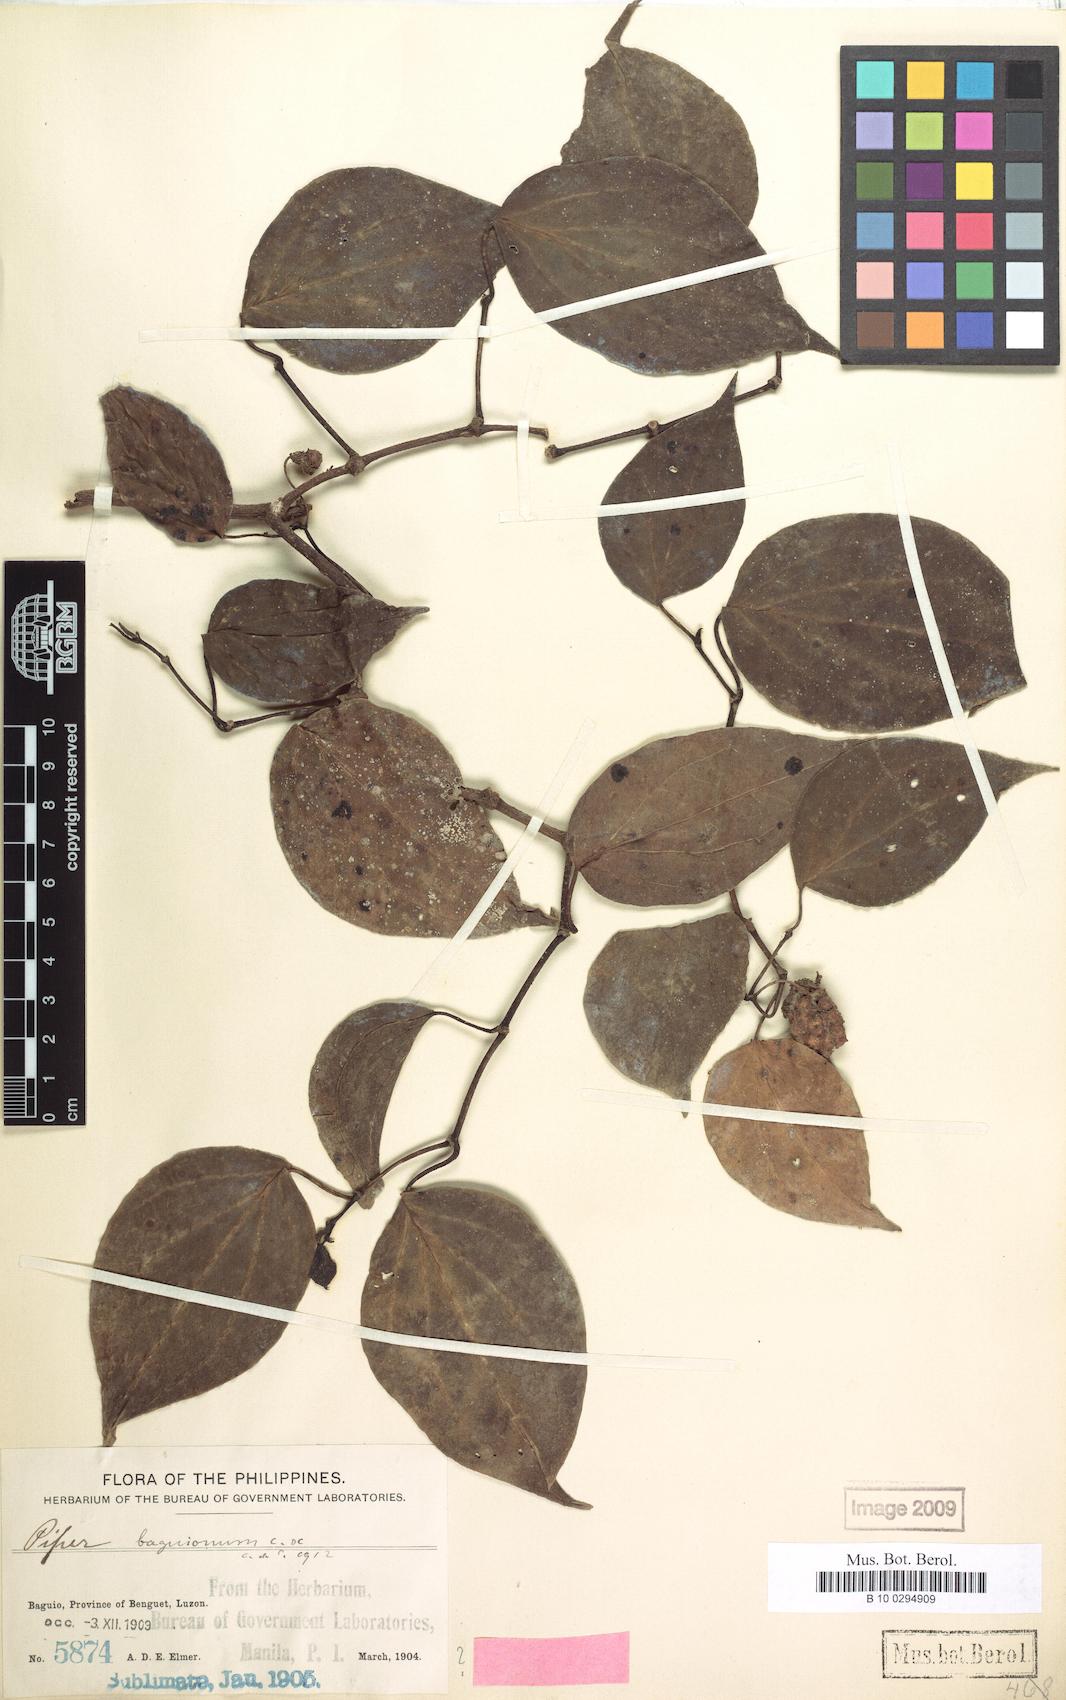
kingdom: Plantae
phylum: Tracheophyta
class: Magnoliopsida
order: Piperales
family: Piperaceae
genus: Piper
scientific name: Piper baguionum
